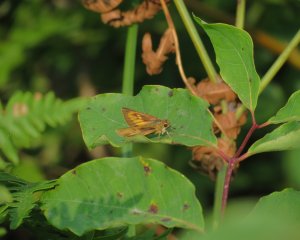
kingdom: Animalia
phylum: Arthropoda
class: Insecta
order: Lepidoptera
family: Hesperiidae
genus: Atrytone
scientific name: Atrytone delaware
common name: Delaware Skipper
